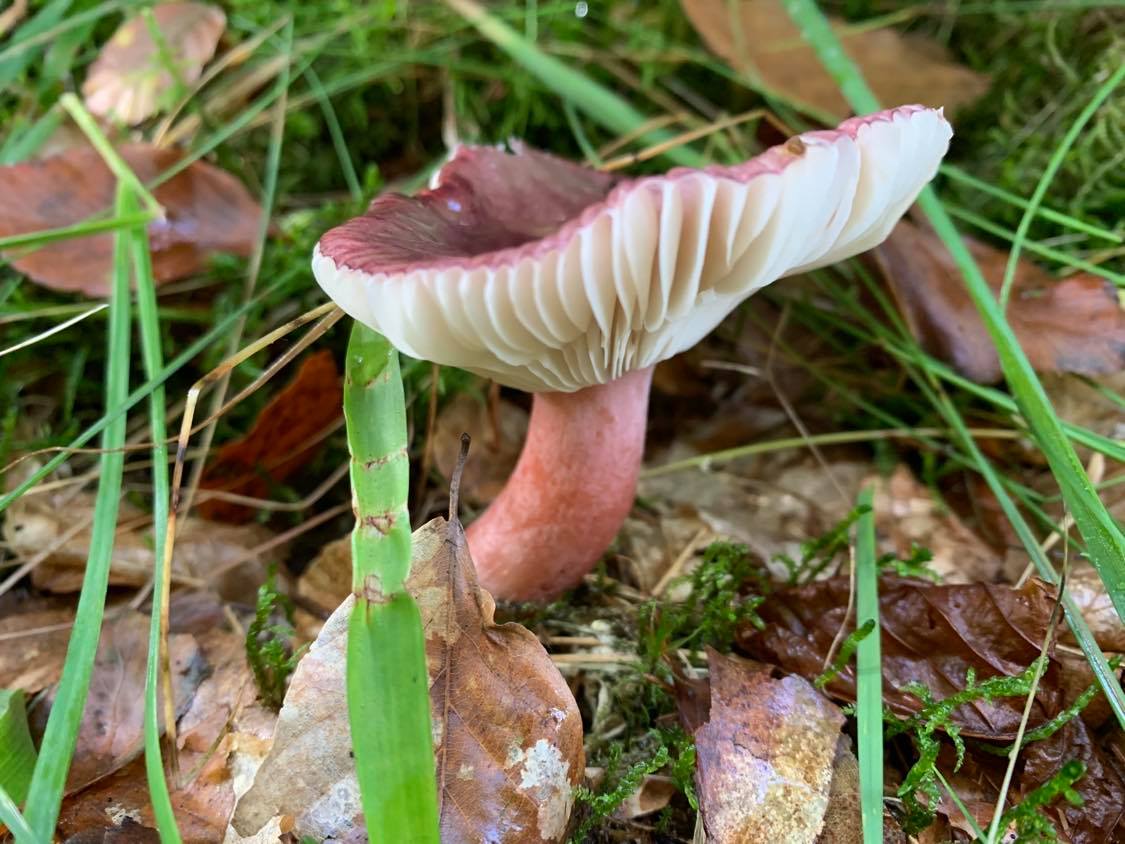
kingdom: Fungi
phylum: Basidiomycota
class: Agaricomycetes
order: Russulales
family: Russulaceae
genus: Russula
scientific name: Russula queletii
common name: Quélets skørhat
